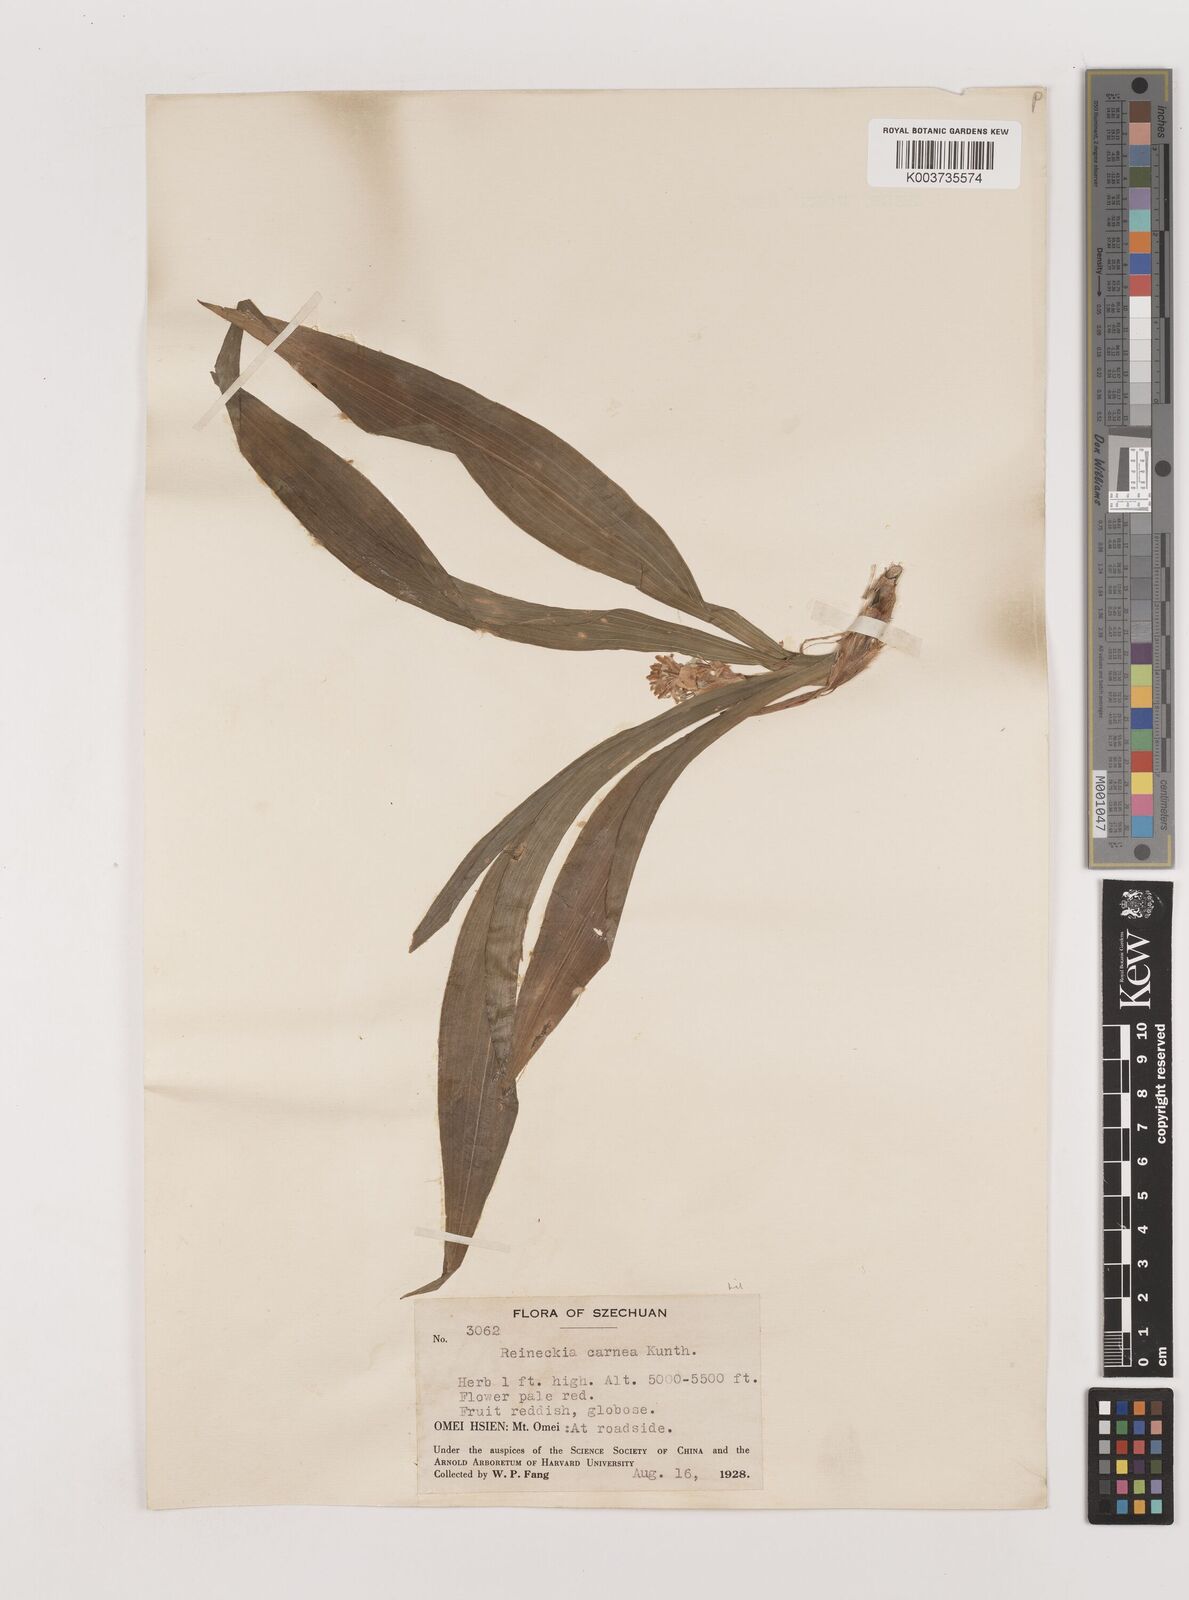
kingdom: Plantae
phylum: Tracheophyta
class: Liliopsida
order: Asparagales
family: Asparagaceae
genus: Reineckea
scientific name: Reineckea carnea
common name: Reineckea
